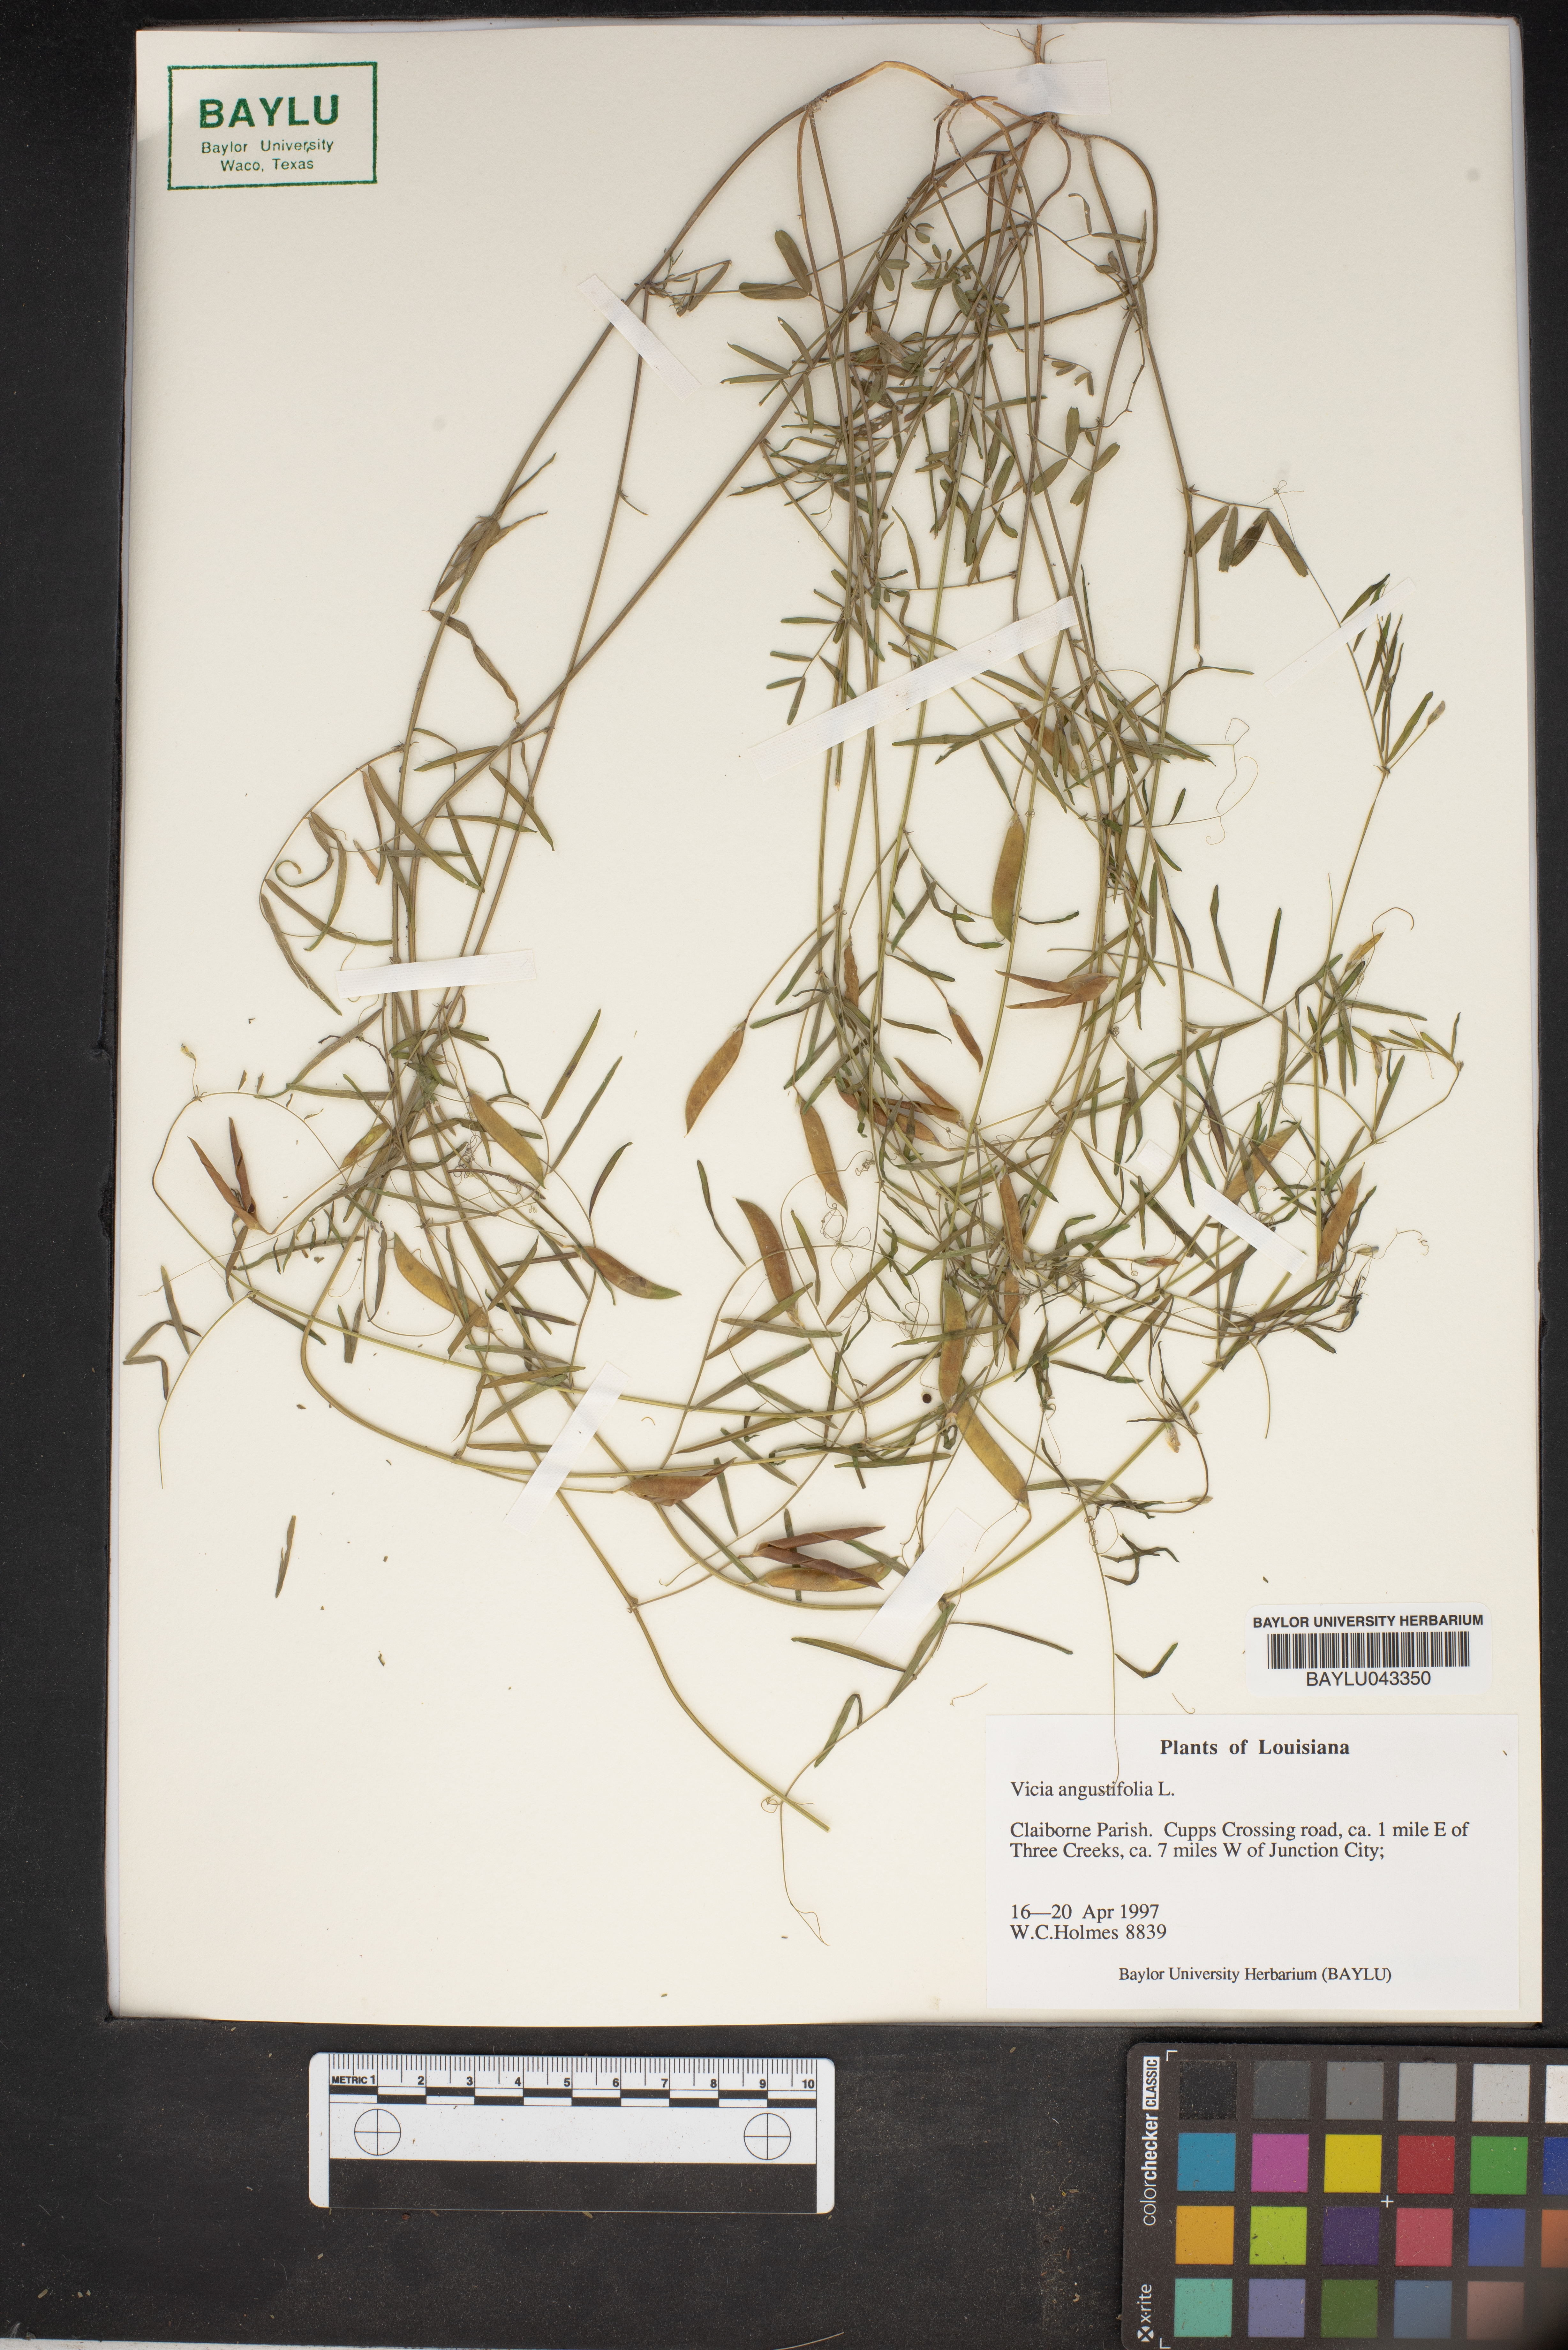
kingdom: Plantae
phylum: Tracheophyta
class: Magnoliopsida
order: Fabales
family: Fabaceae
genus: Vicia
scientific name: Vicia sativa
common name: Garden vetch
